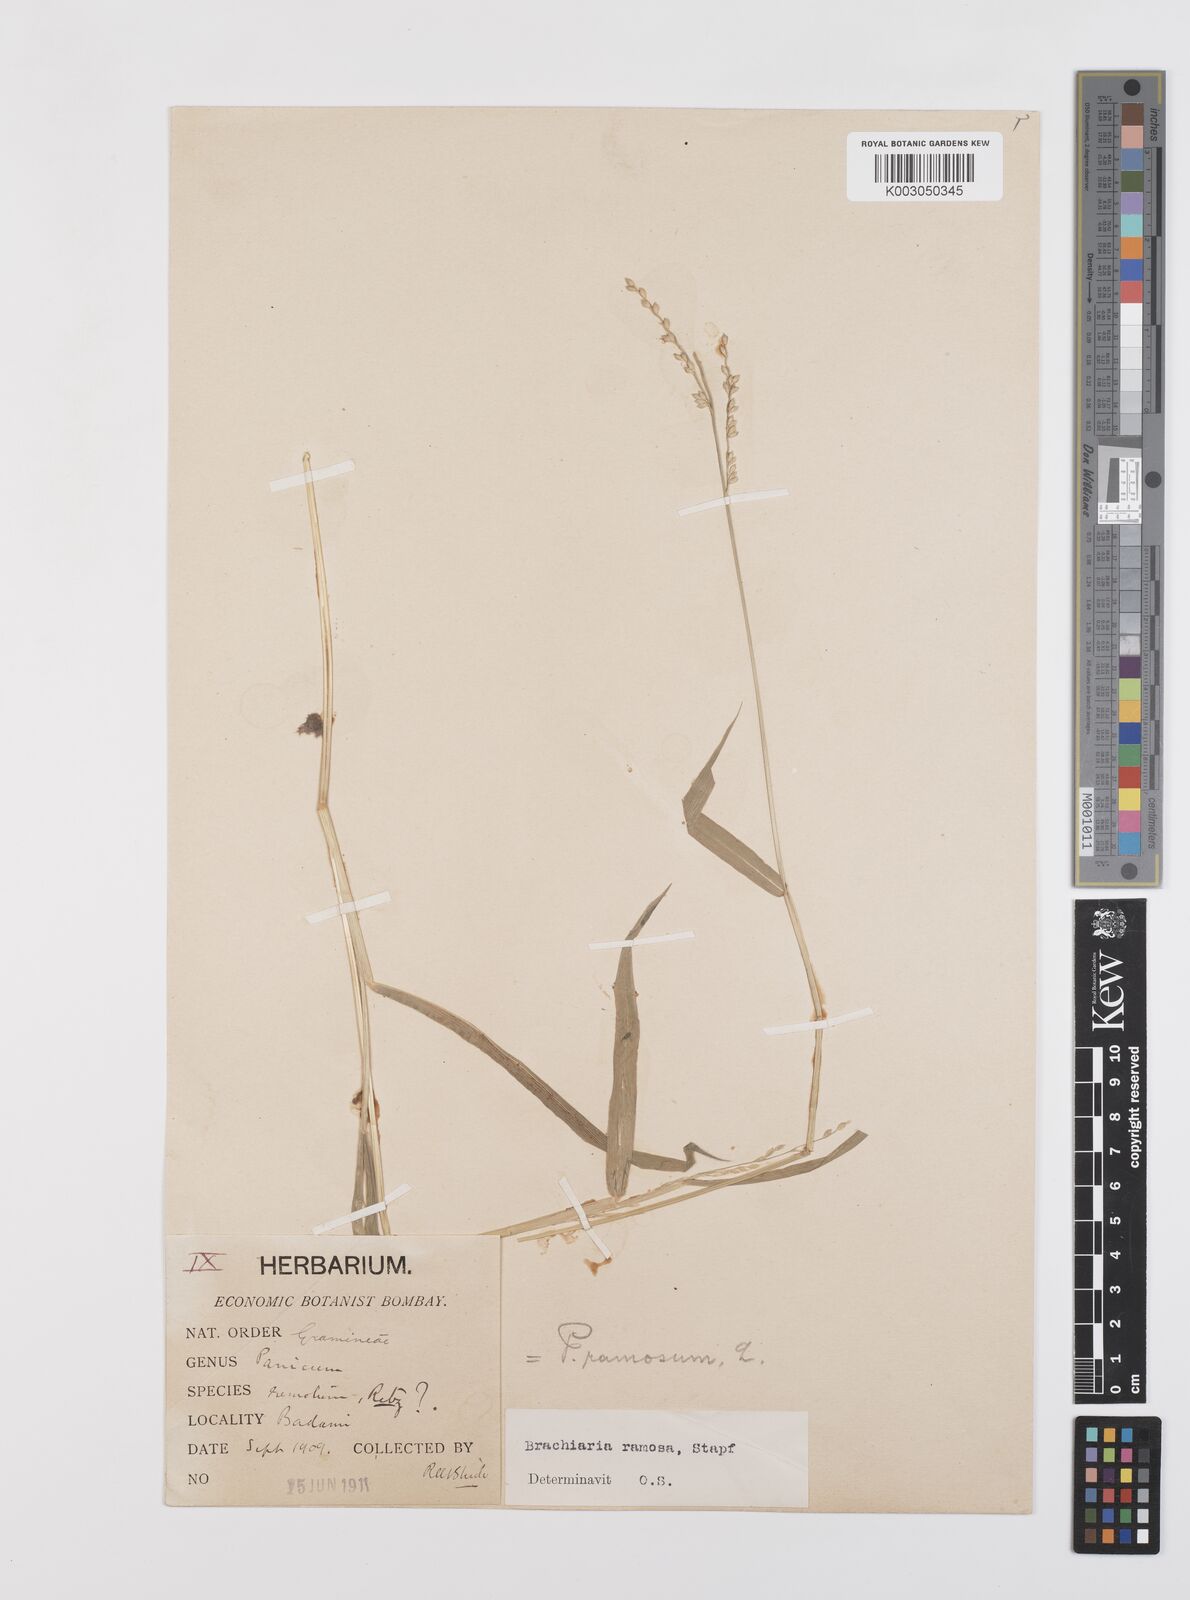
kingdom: Plantae
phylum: Tracheophyta
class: Liliopsida
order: Poales
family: Poaceae
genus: Urochloa
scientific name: Urochloa ramosa
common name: Browntop millet
